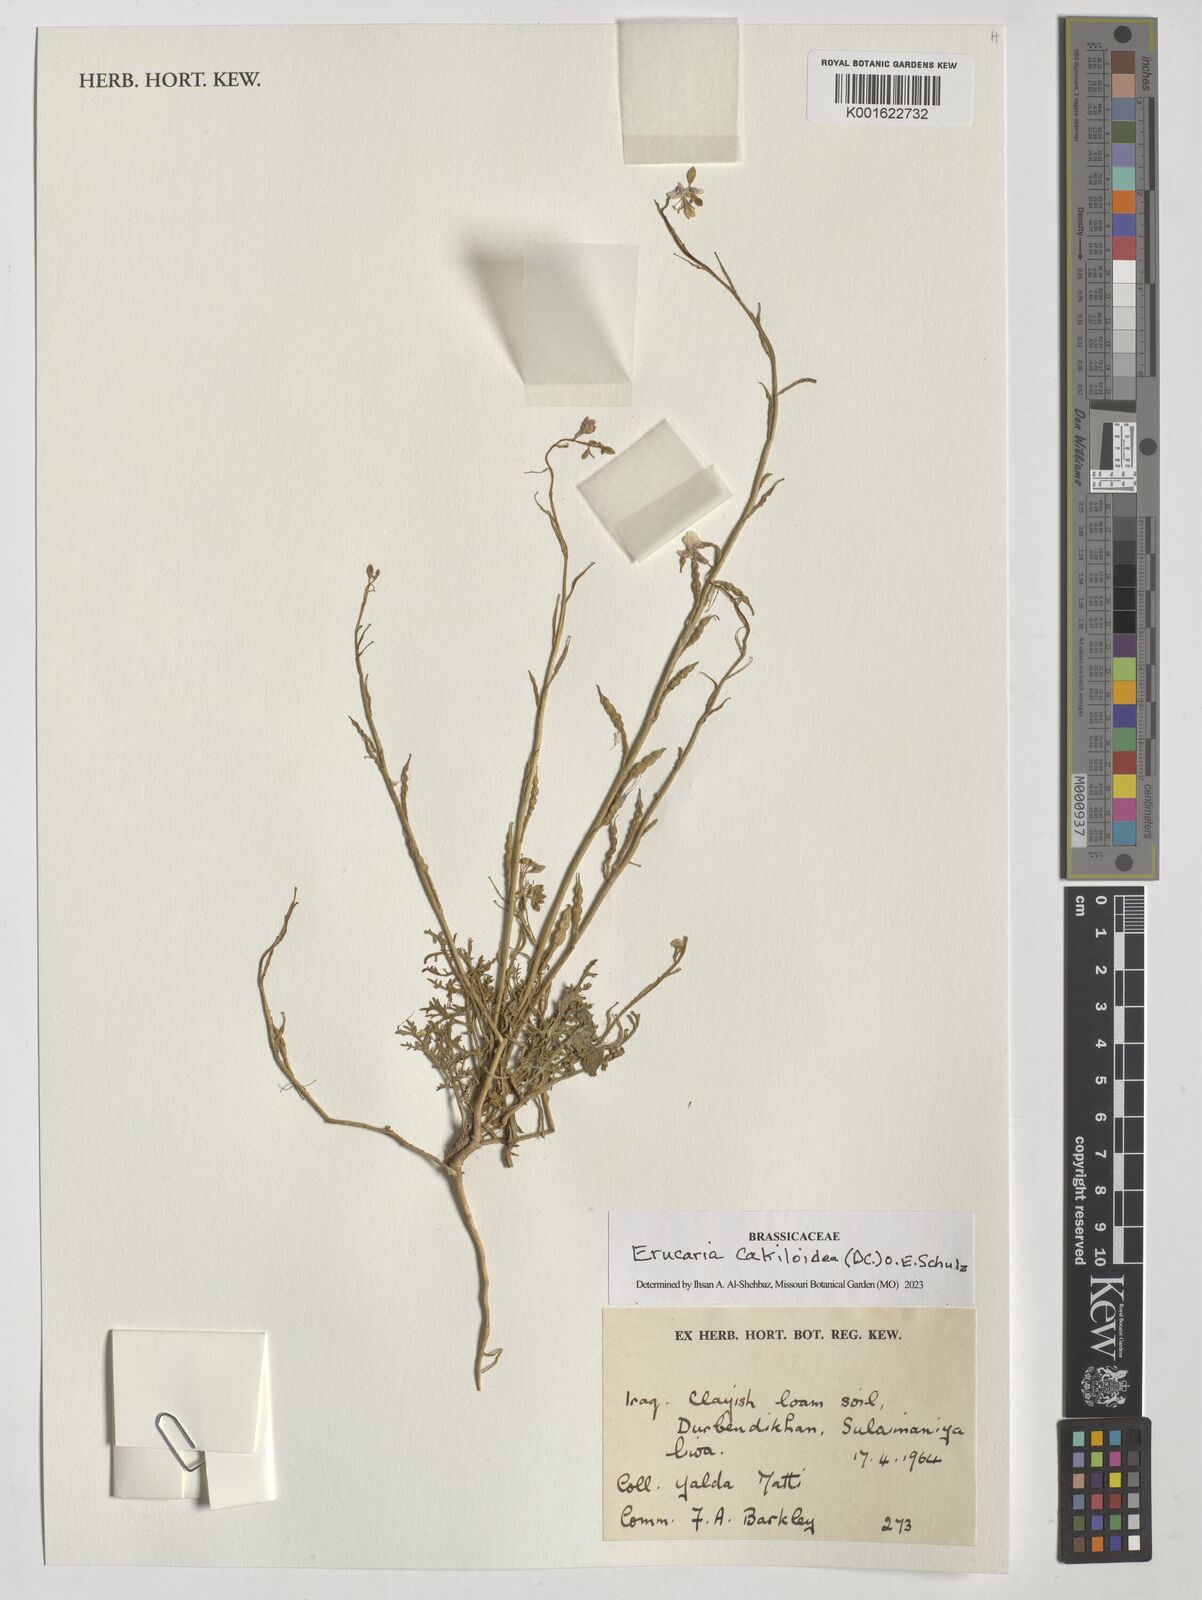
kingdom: Plantae
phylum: Tracheophyta
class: Magnoliopsida
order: Brassicales
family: Brassicaceae
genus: Erucaria
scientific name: Erucaria cakiloidea
